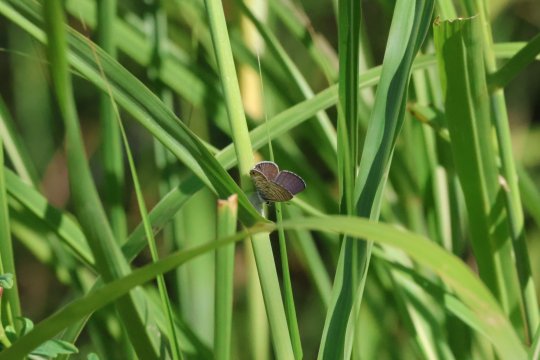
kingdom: Animalia
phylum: Arthropoda
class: Insecta
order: Lepidoptera
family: Lycaenidae
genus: Leptotes
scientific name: Leptotes marina
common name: Marine Blue
